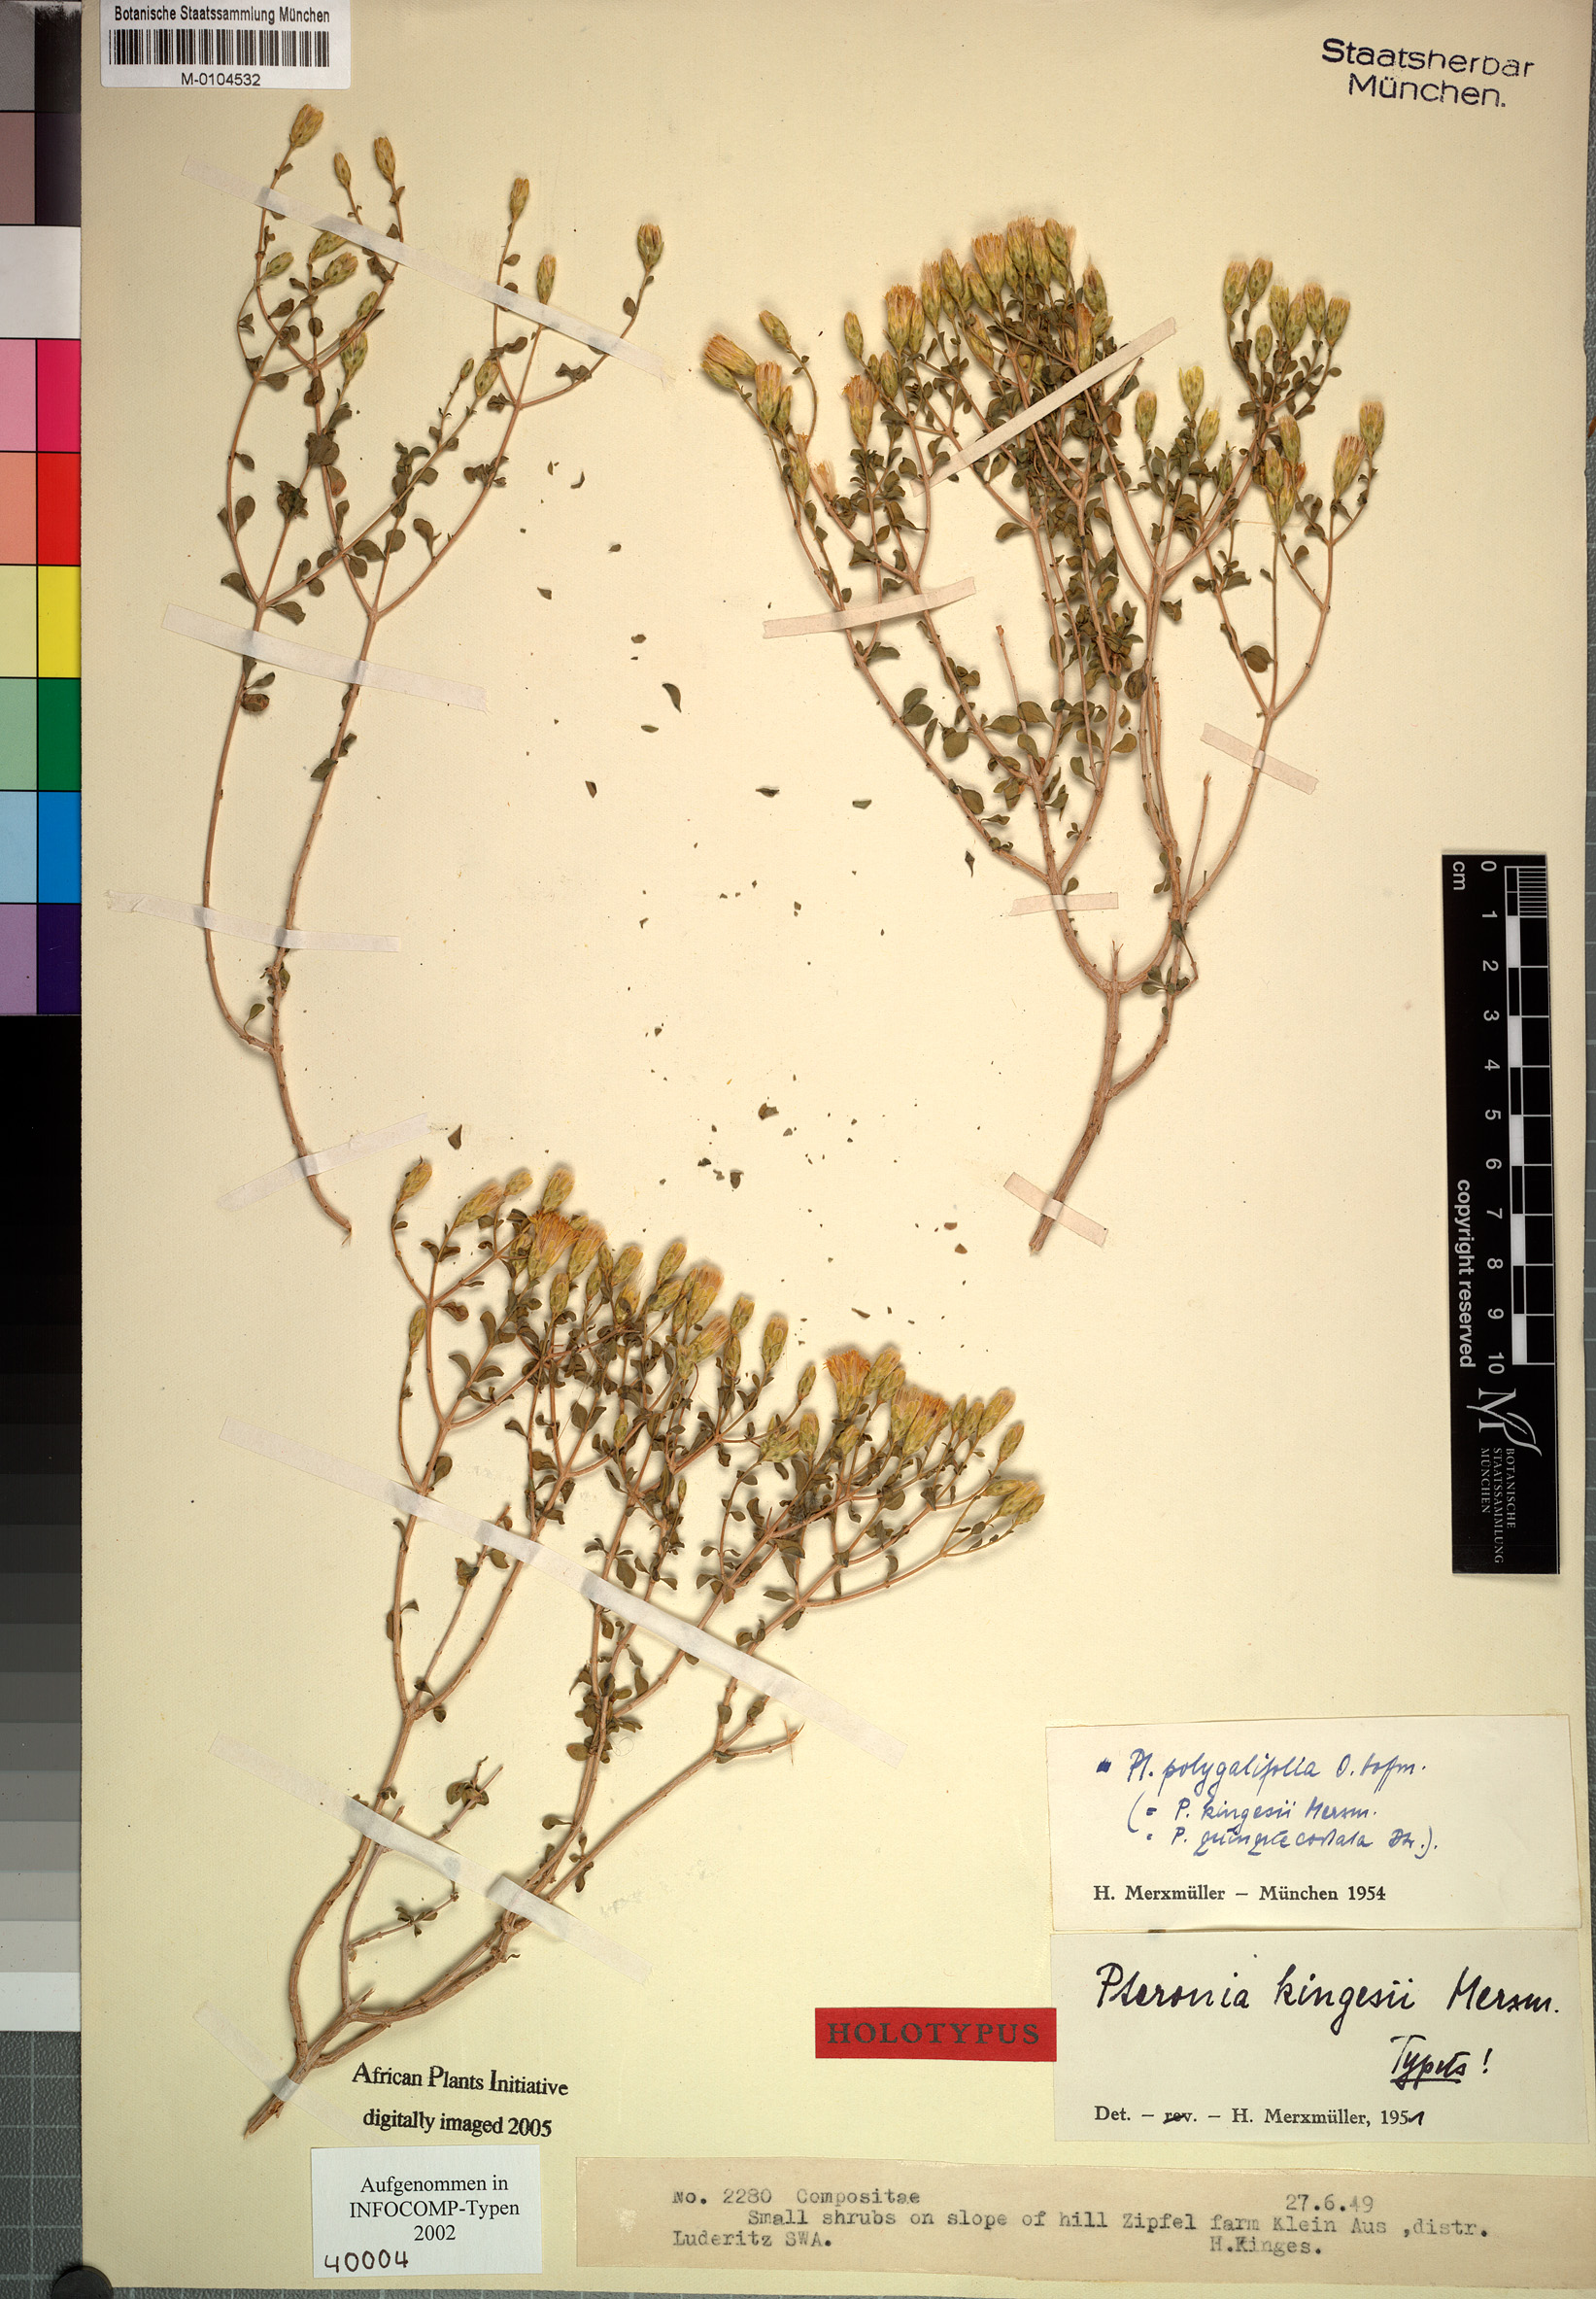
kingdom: Plantae
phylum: Tracheophyta
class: Magnoliopsida
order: Asterales
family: Asteraceae
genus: Pteronia
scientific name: Pteronia polygalifolia
